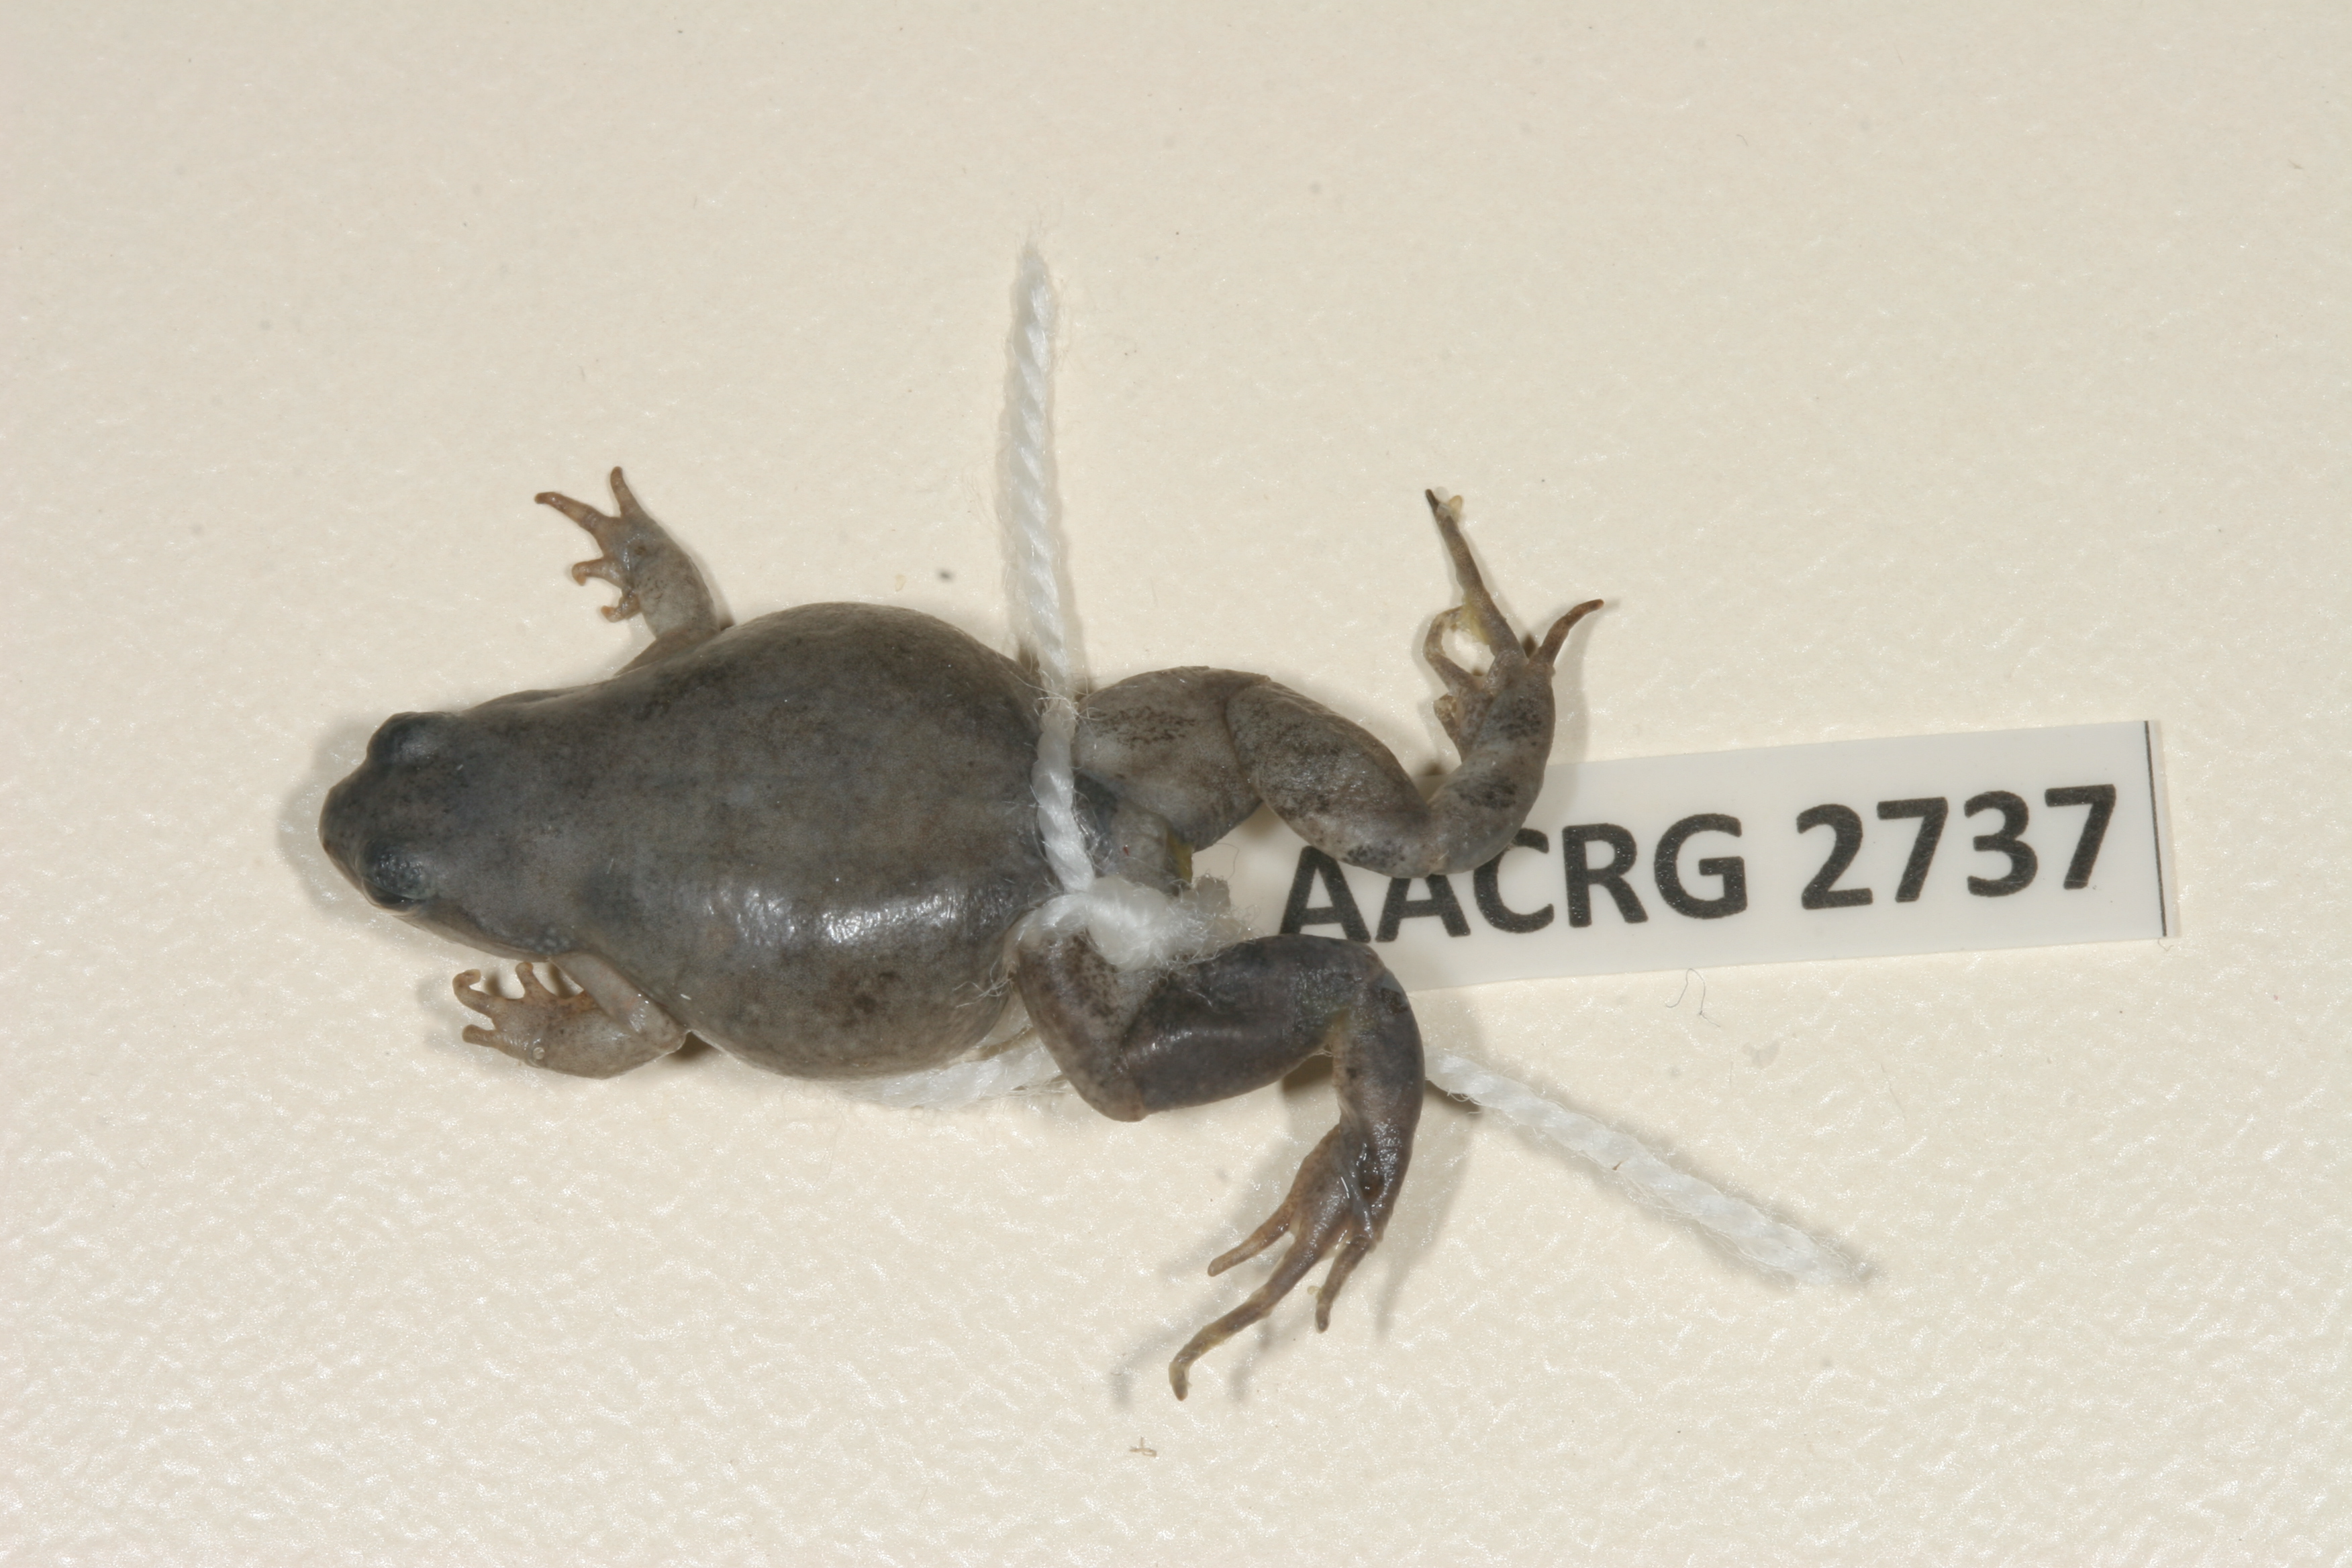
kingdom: Animalia
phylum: Chordata
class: Amphibia
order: Anura
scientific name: Anura
